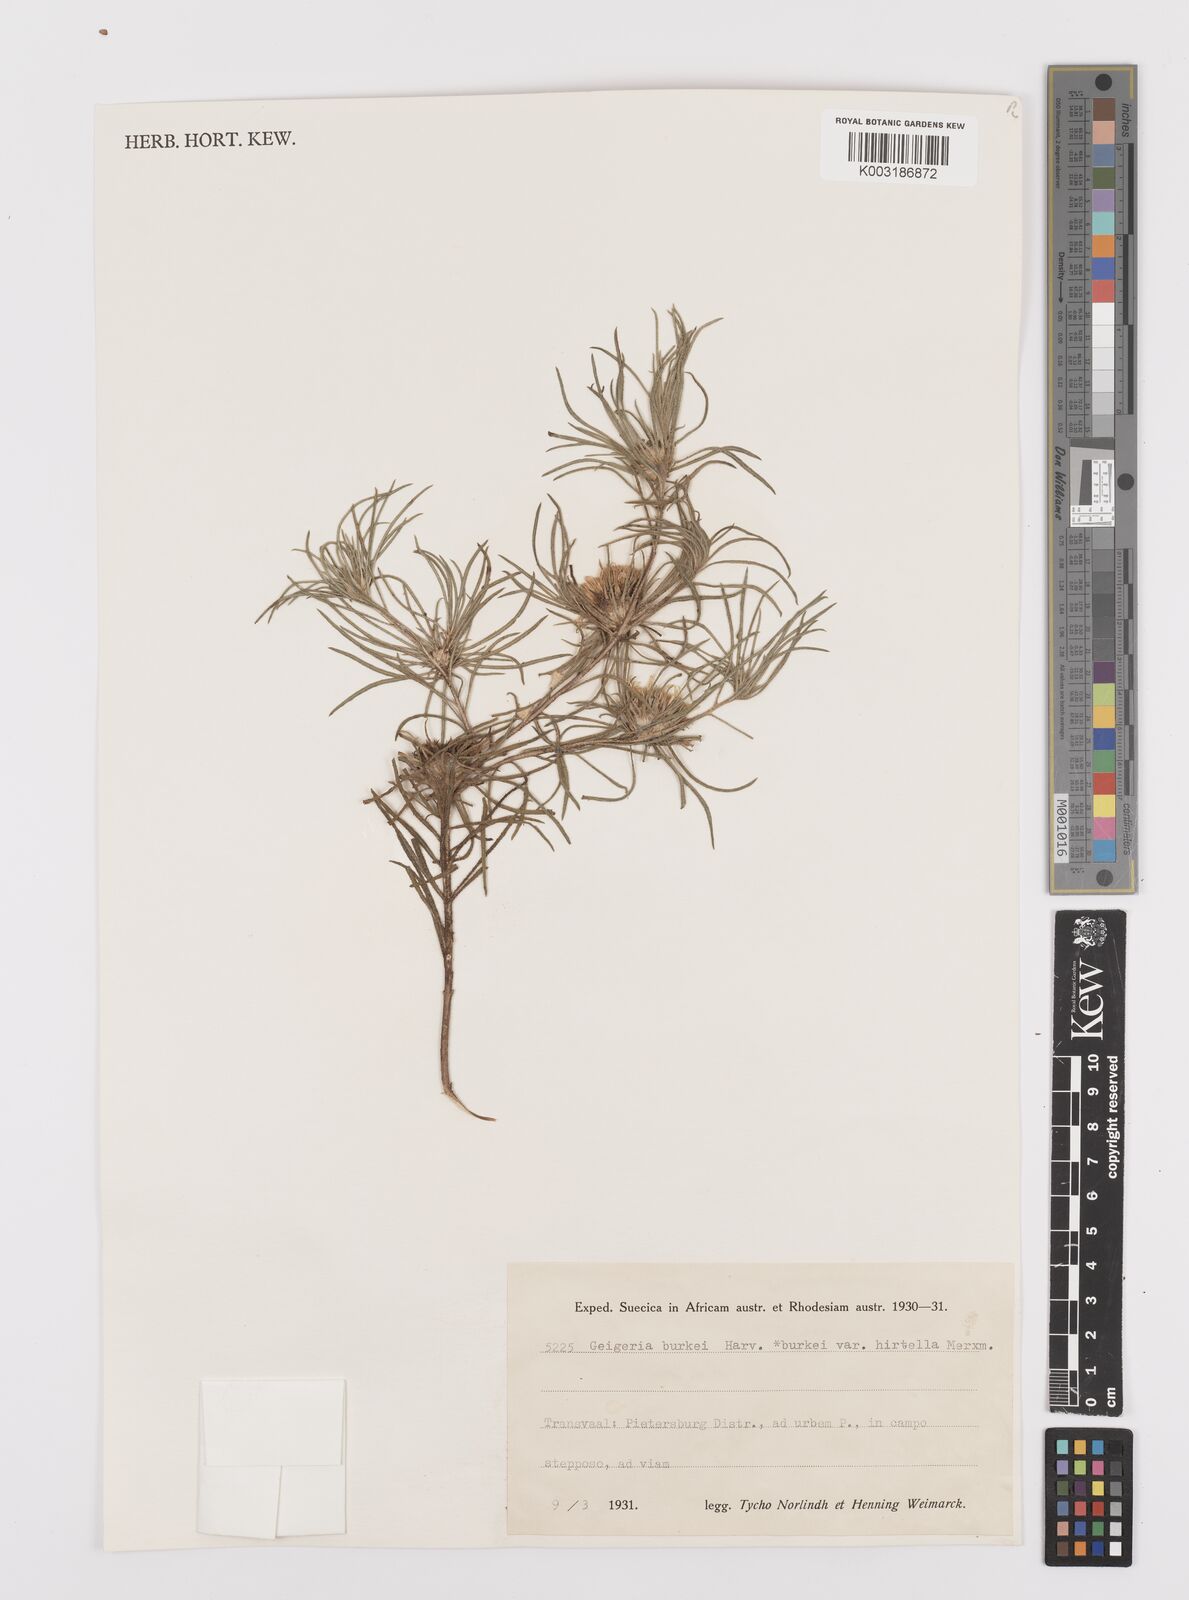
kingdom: Plantae
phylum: Tracheophyta
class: Magnoliopsida
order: Asterales
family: Asteraceae
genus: Geigeria
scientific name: Geigeria burkei
